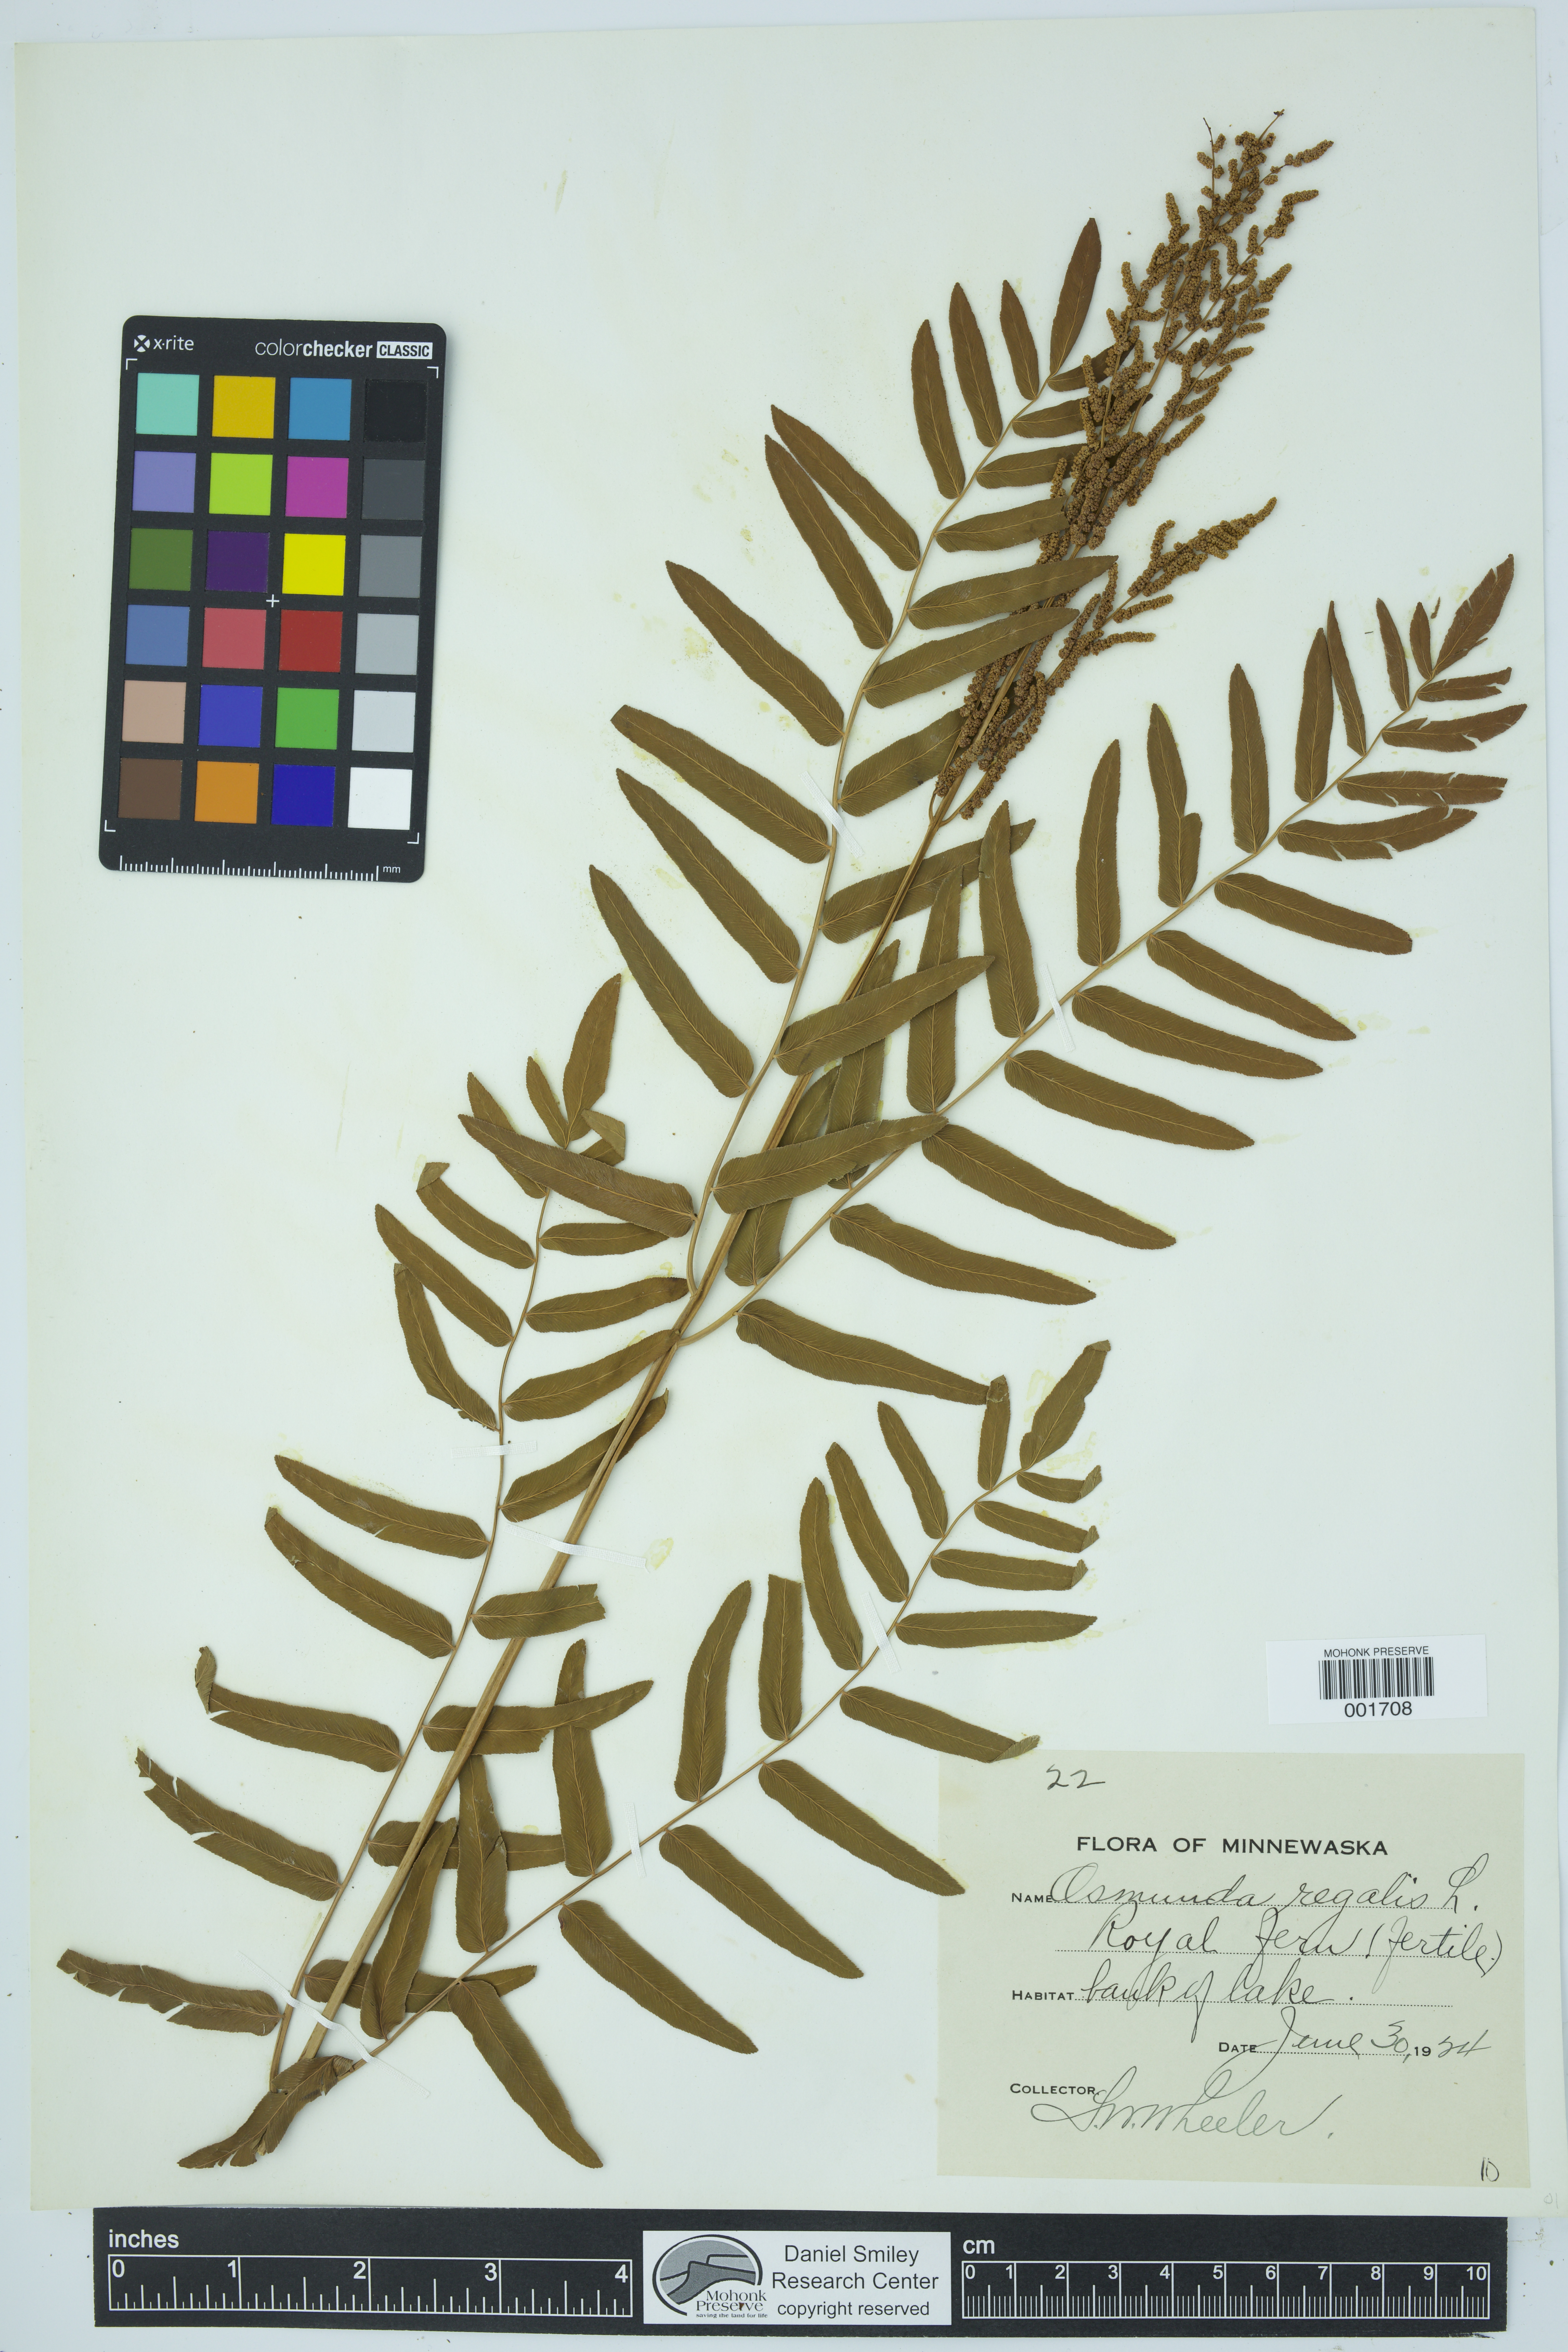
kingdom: Plantae
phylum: Tracheophyta
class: Polypodiopsida
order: Osmundales
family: Osmundaceae
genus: Osmunda
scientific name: Osmunda regalis
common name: Royal fern
